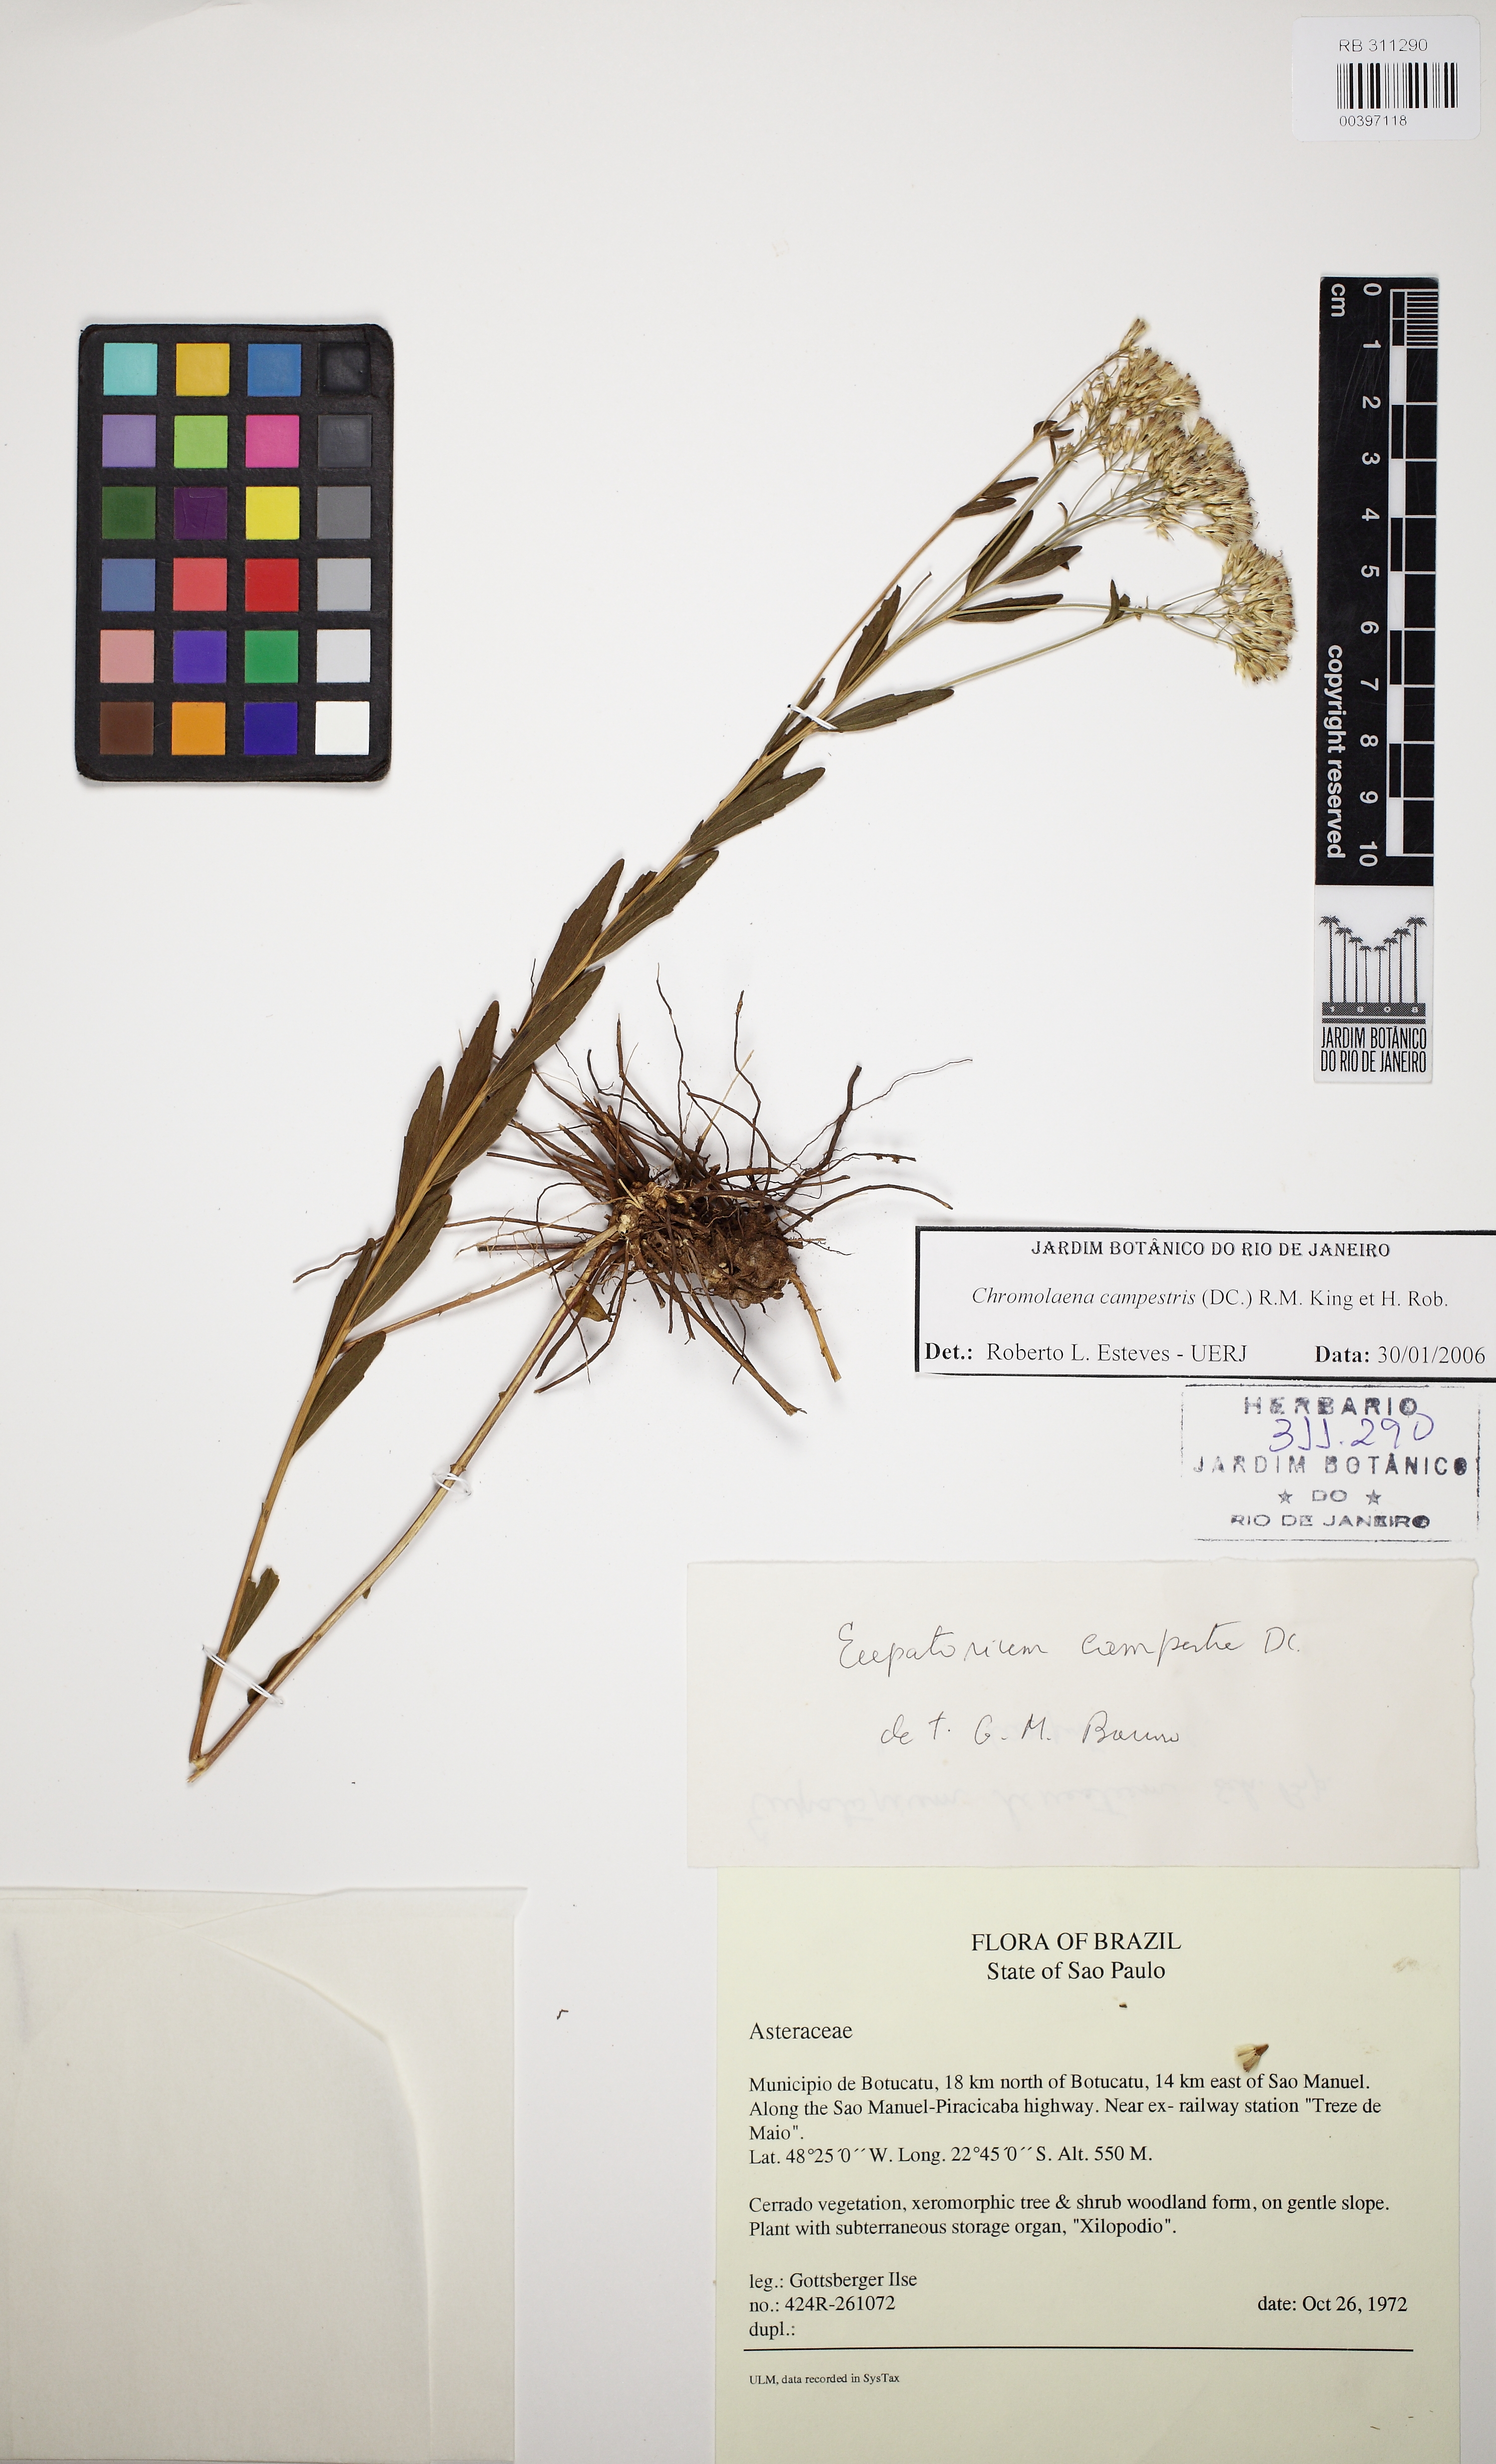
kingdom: Plantae
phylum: Tracheophyta
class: Magnoliopsida
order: Asterales
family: Asteraceae
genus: Chromolaena
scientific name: Chromolaena campestris
